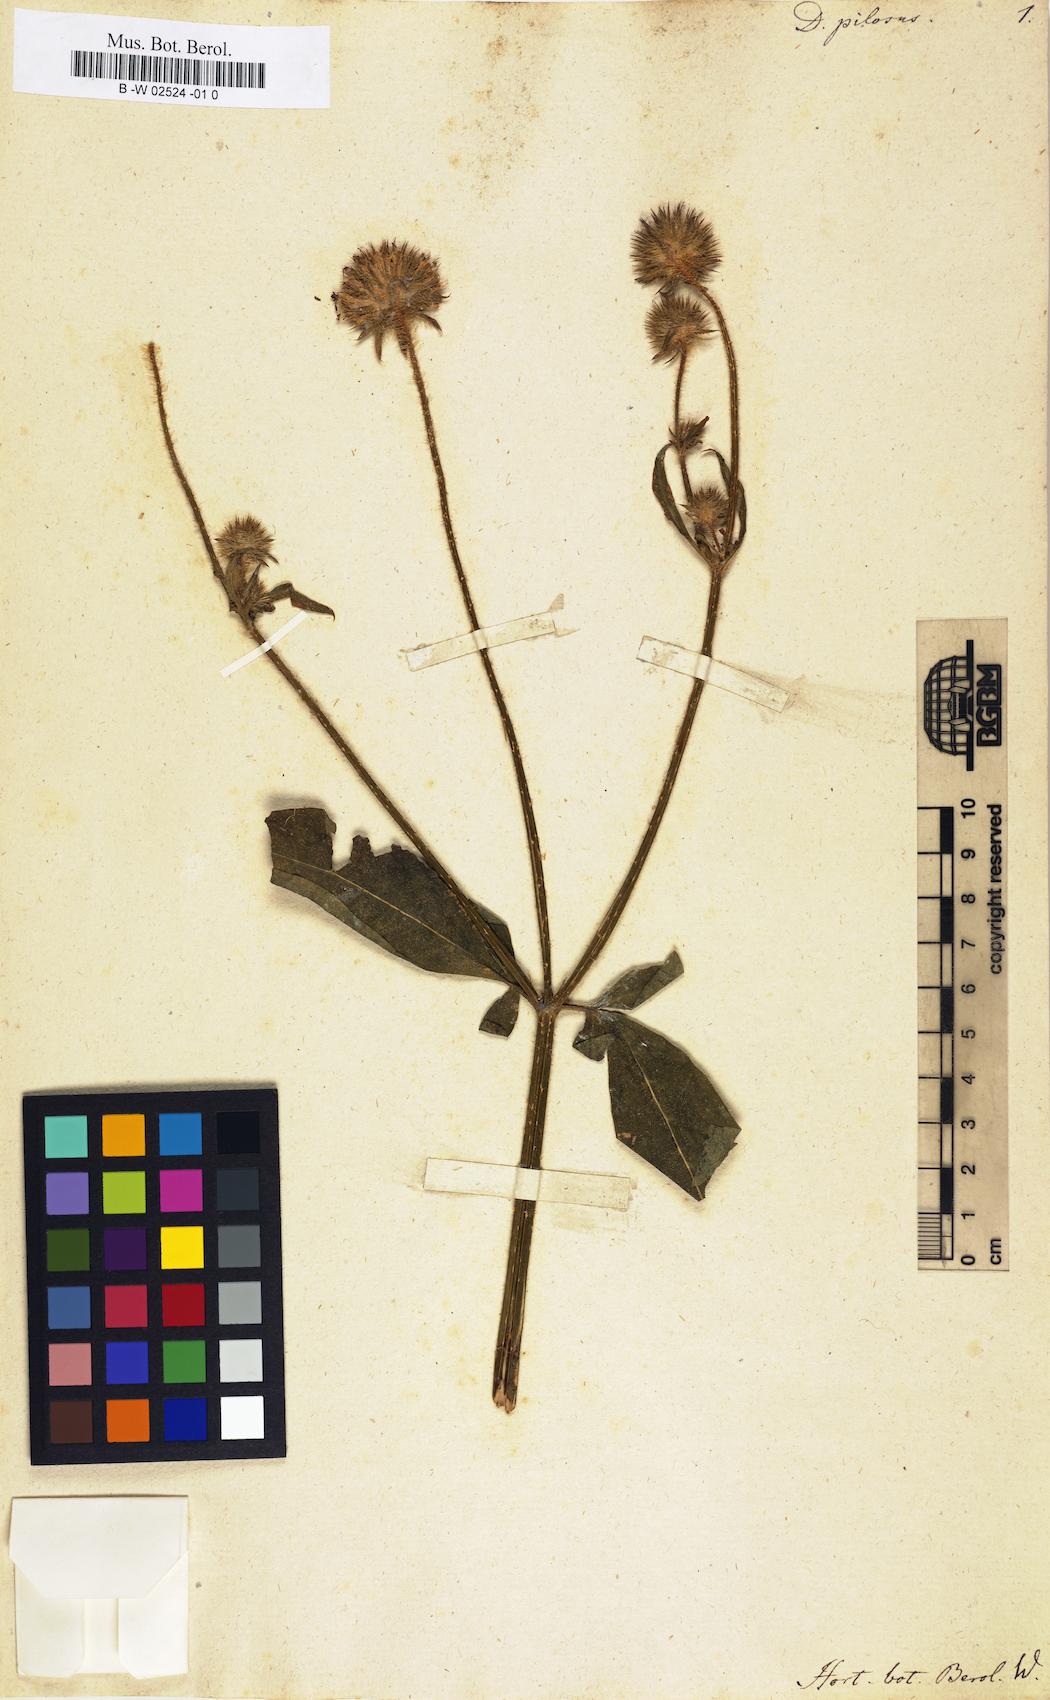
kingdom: Plantae
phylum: Tracheophyta
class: Magnoliopsida
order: Dipsacales
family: Caprifoliaceae
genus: Dipsacus
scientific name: Dipsacus pilosus
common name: Small teasel
